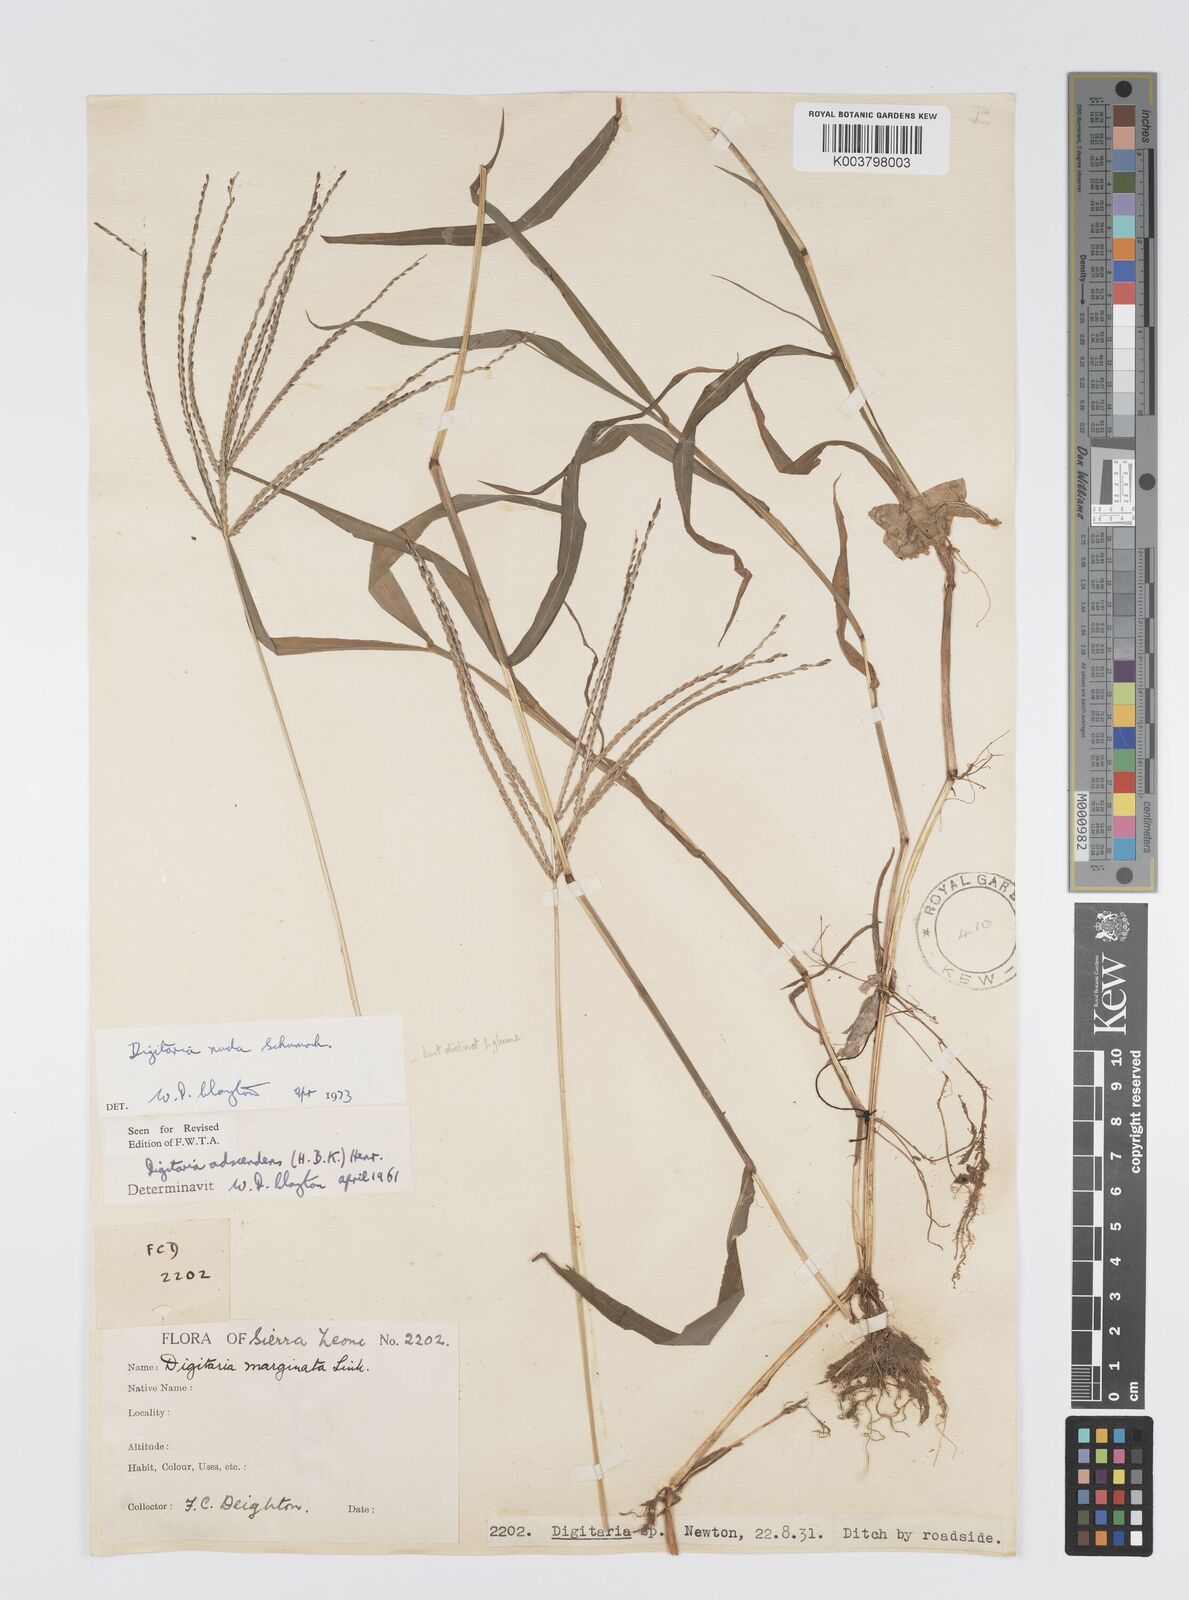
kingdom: Plantae
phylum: Tracheophyta
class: Liliopsida
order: Poales
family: Poaceae
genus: Digitaria
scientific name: Digitaria nuda
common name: Naked crabgrass
